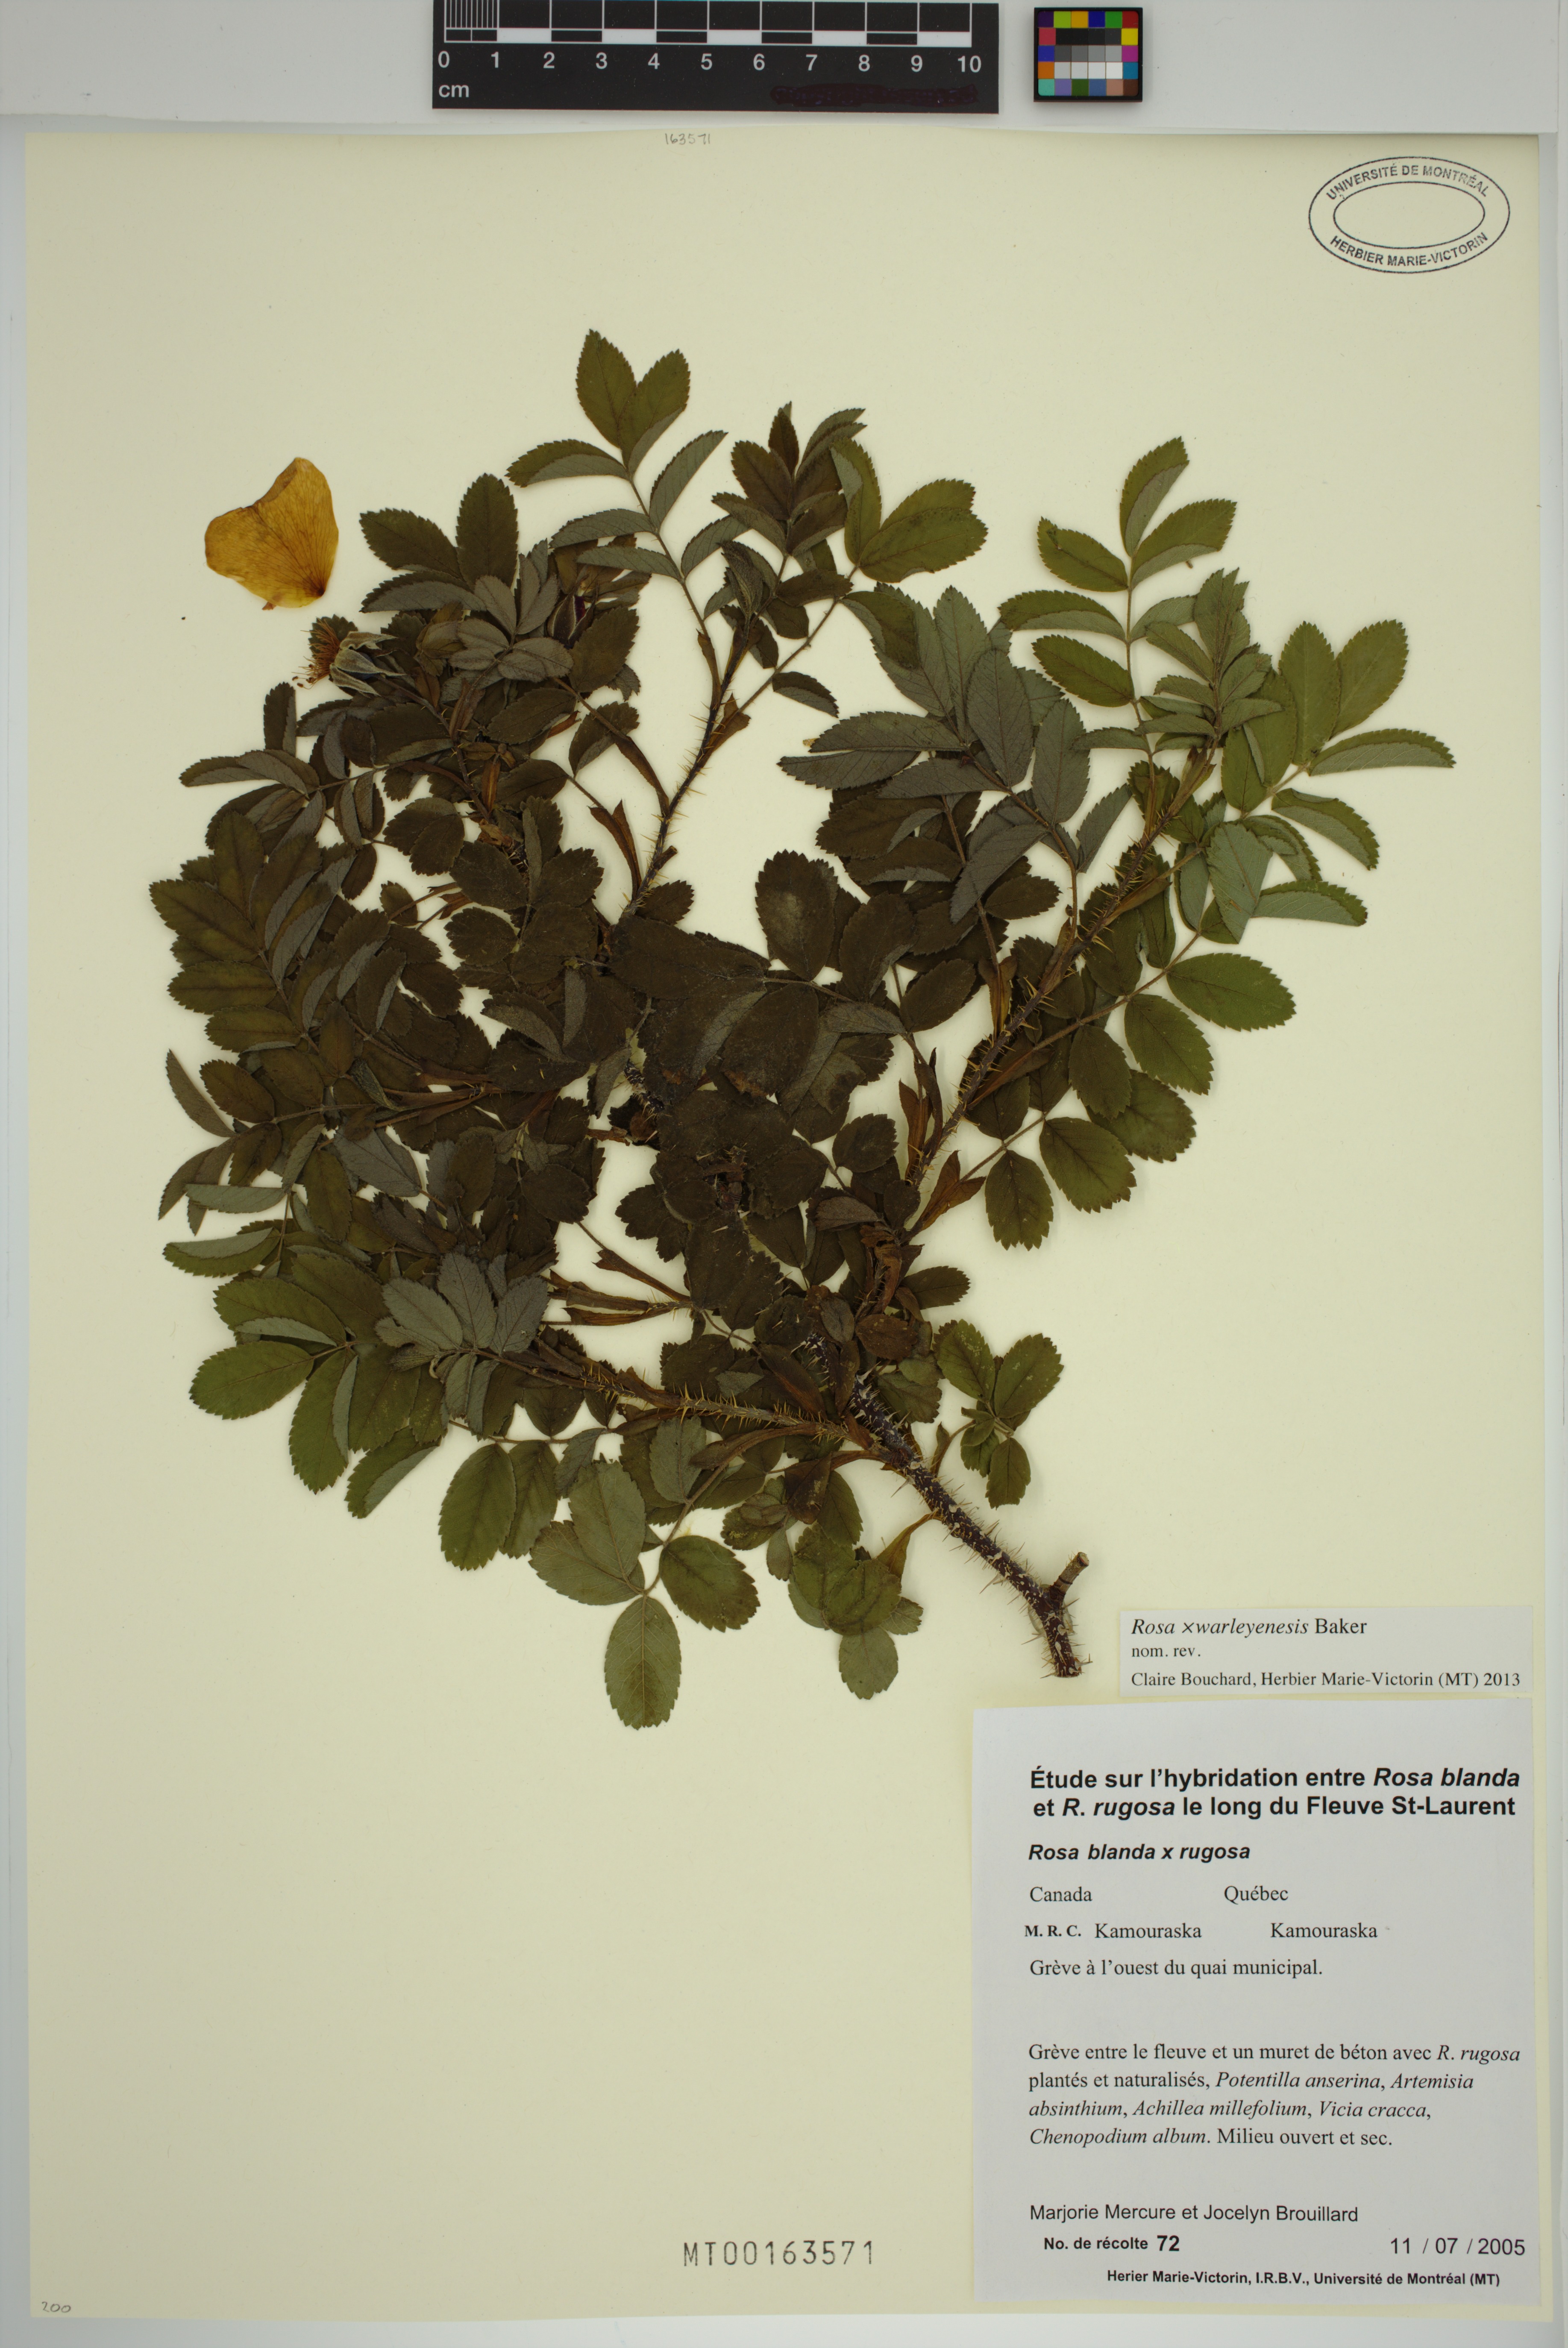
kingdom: Plantae
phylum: Tracheophyta
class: Magnoliopsida
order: Rosales
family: Rosaceae
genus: Rosa
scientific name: Rosa warleyensis
